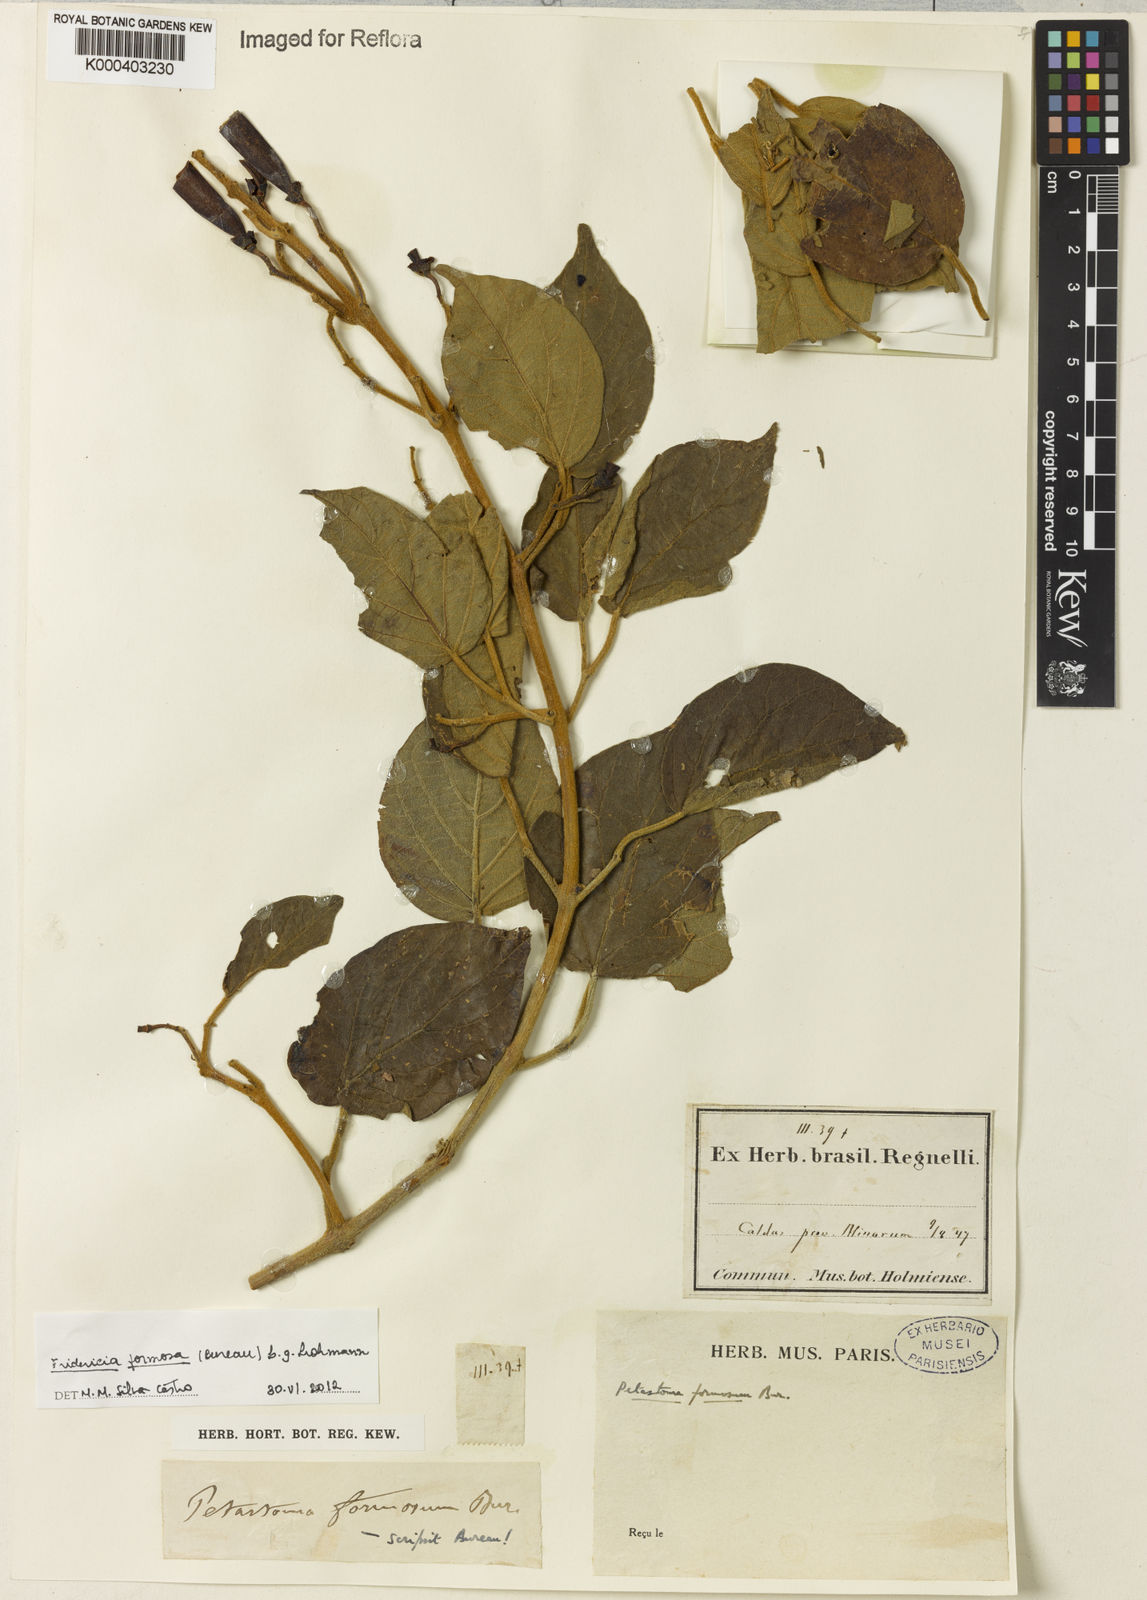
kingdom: Plantae
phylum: Tracheophyta
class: Magnoliopsida
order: Lamiales
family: Bignoniaceae
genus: Fridericia
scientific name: Fridericia formosa
